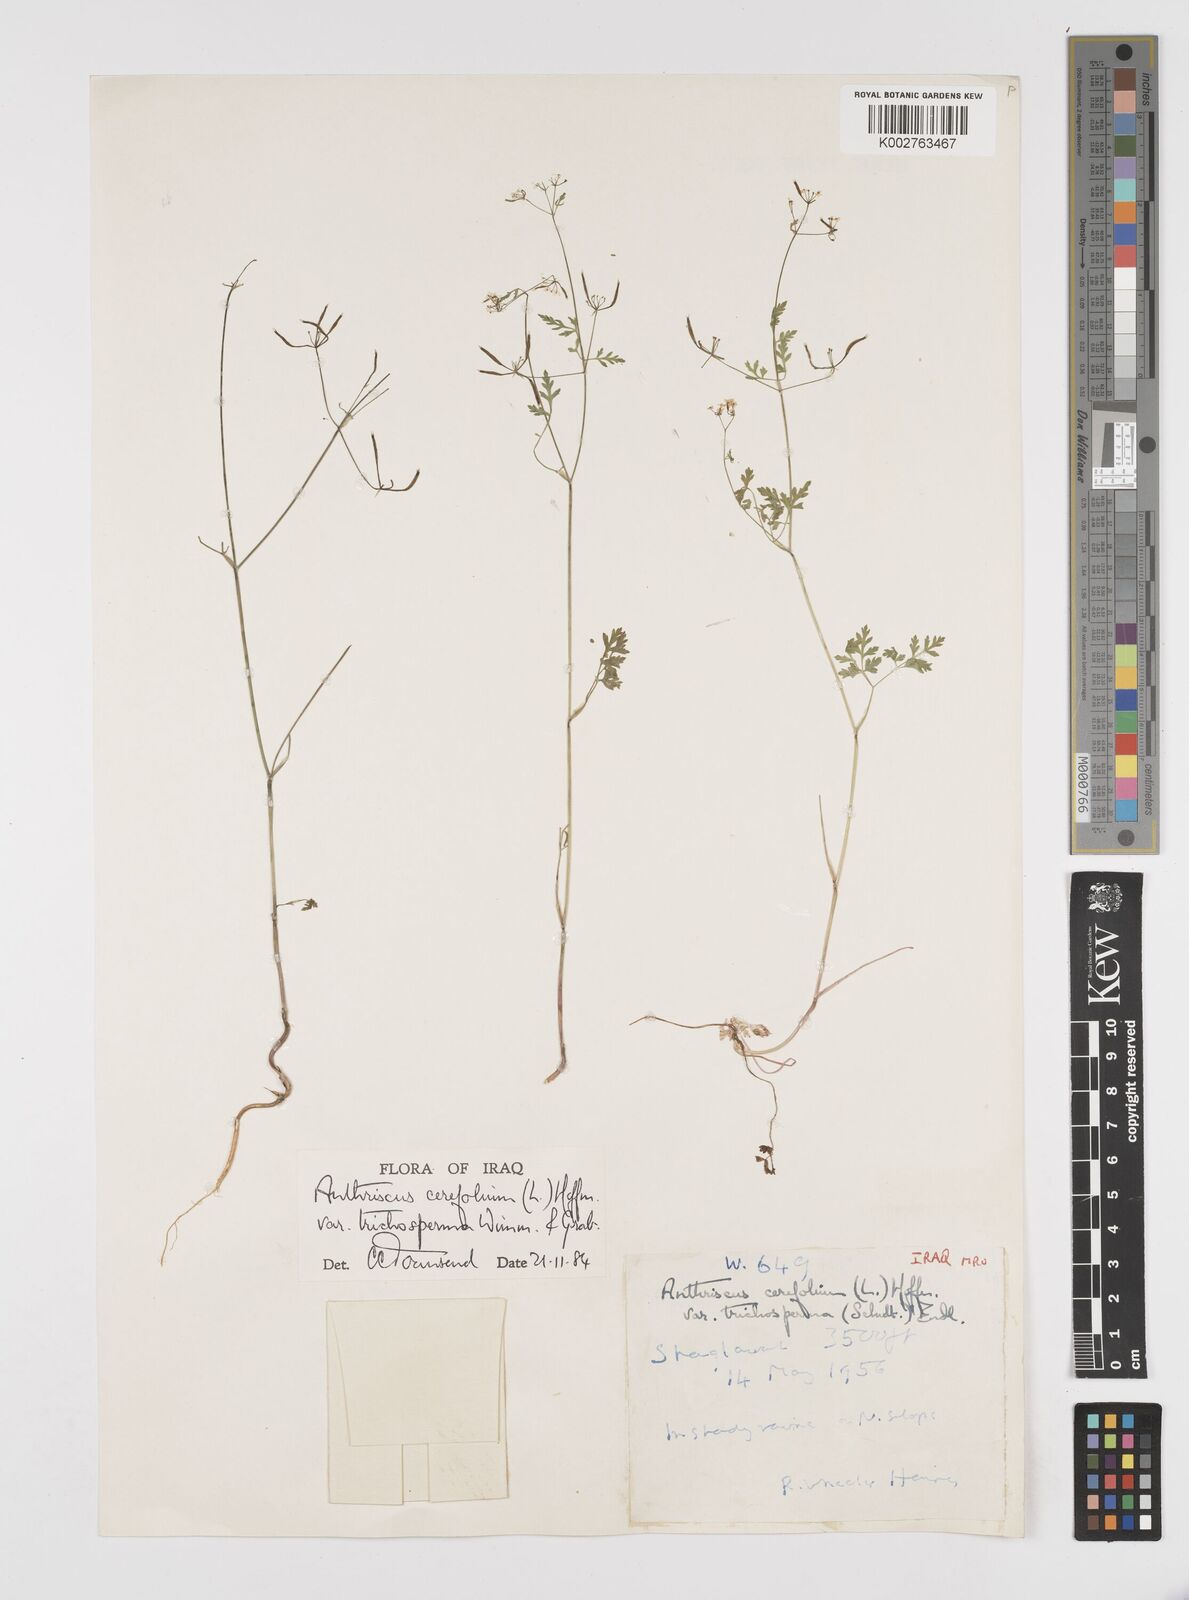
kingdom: Plantae
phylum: Tracheophyta
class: Magnoliopsida
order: Apiales
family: Apiaceae
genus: Anthriscus
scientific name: Anthriscus cerefolium
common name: Garden chervil
